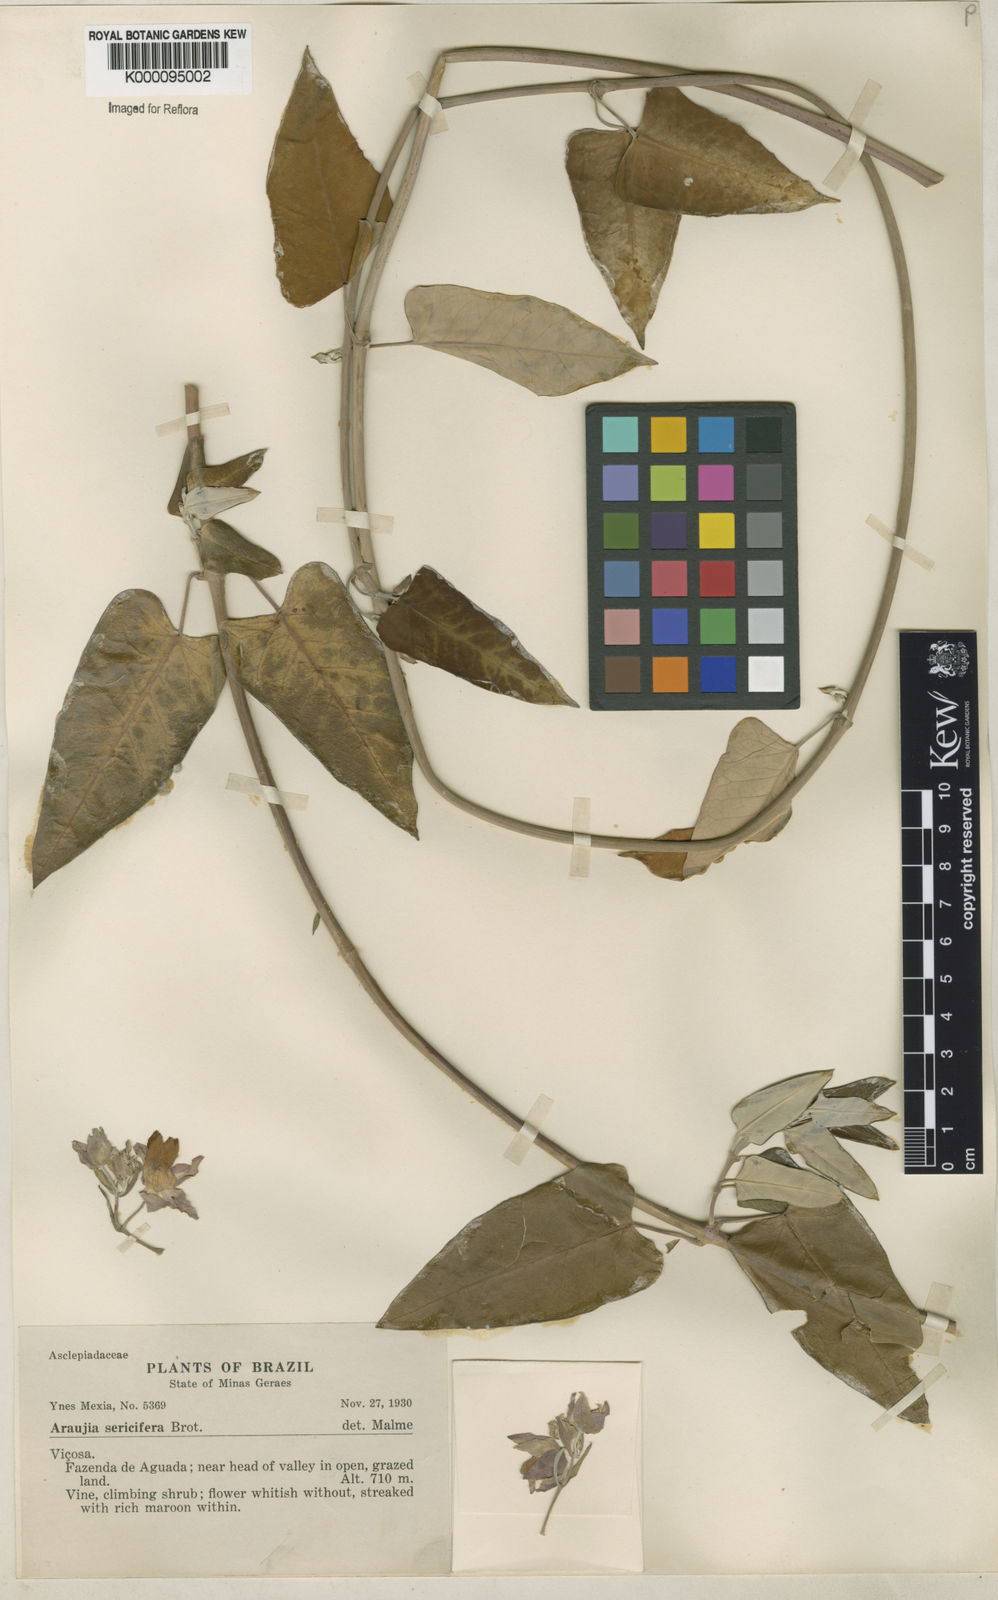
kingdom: Plantae
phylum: Tracheophyta
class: Magnoliopsida
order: Gentianales
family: Apocynaceae
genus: Araujia
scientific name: Araujia sericifera
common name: White bladderflower
